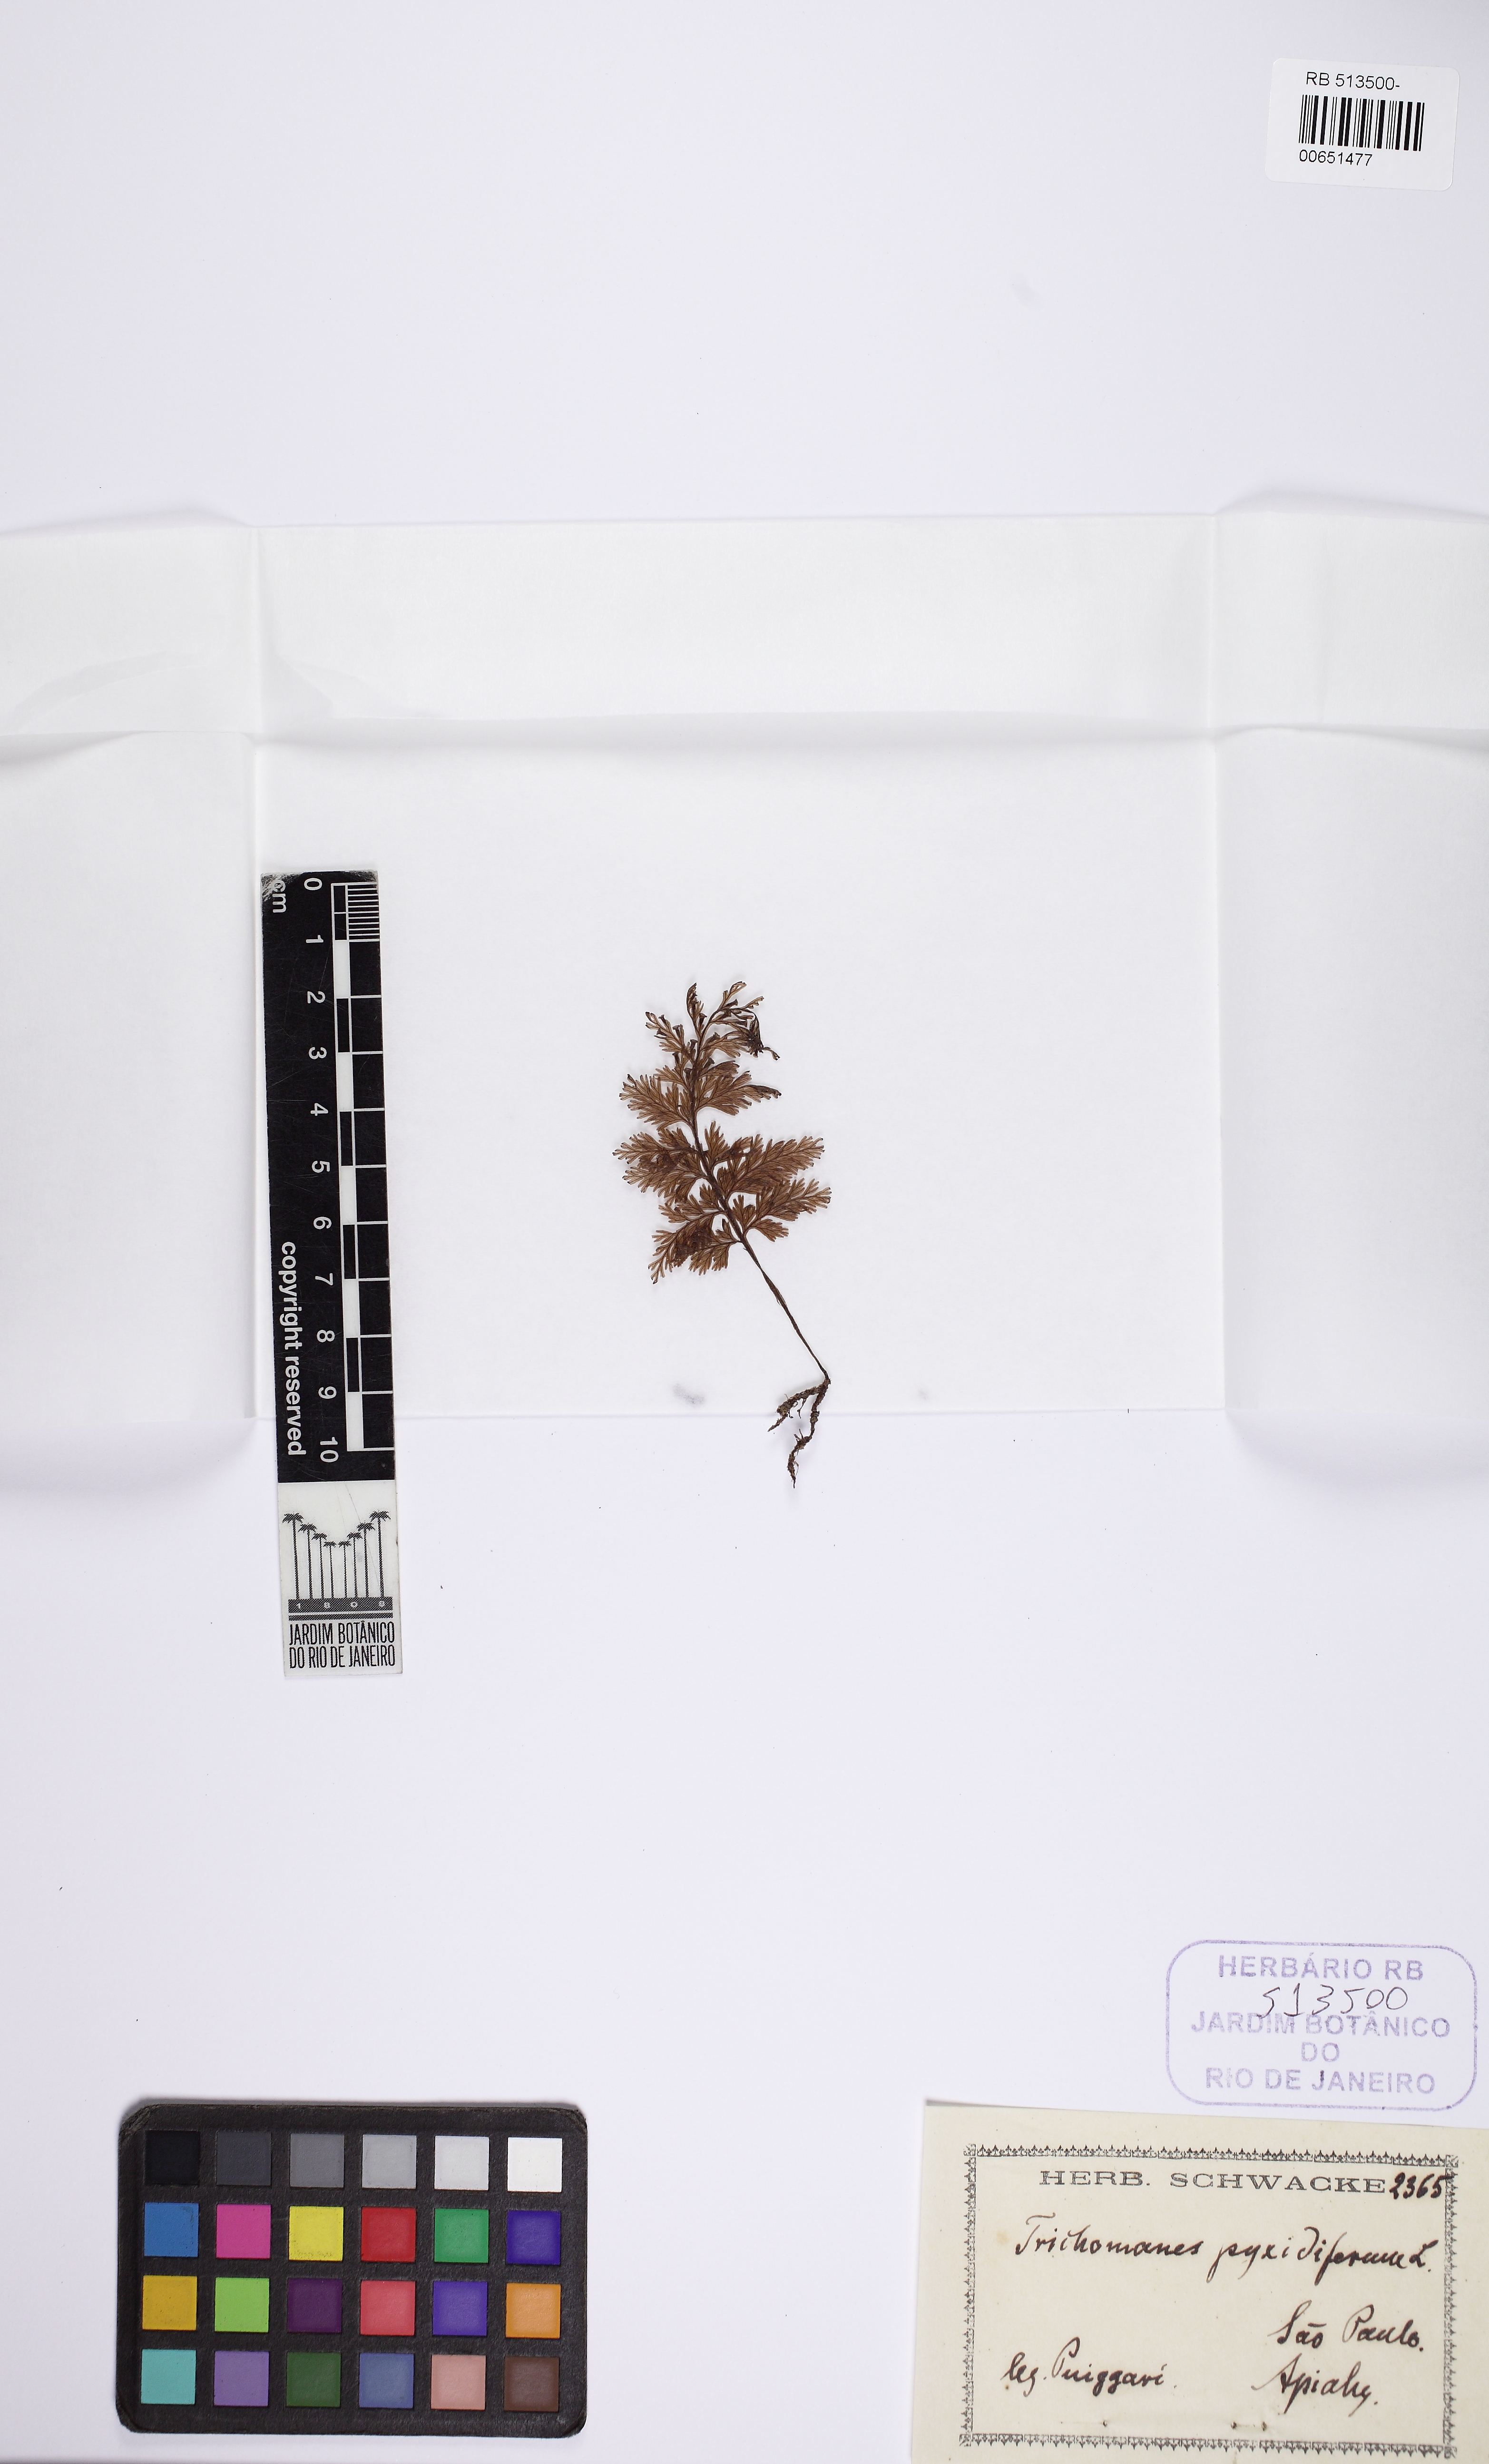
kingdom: Plantae
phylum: Tracheophyta
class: Polypodiopsida
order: Hymenophyllales
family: Hymenophyllaceae
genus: Polyphlebium
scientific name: Polyphlebium pyxidiferum
